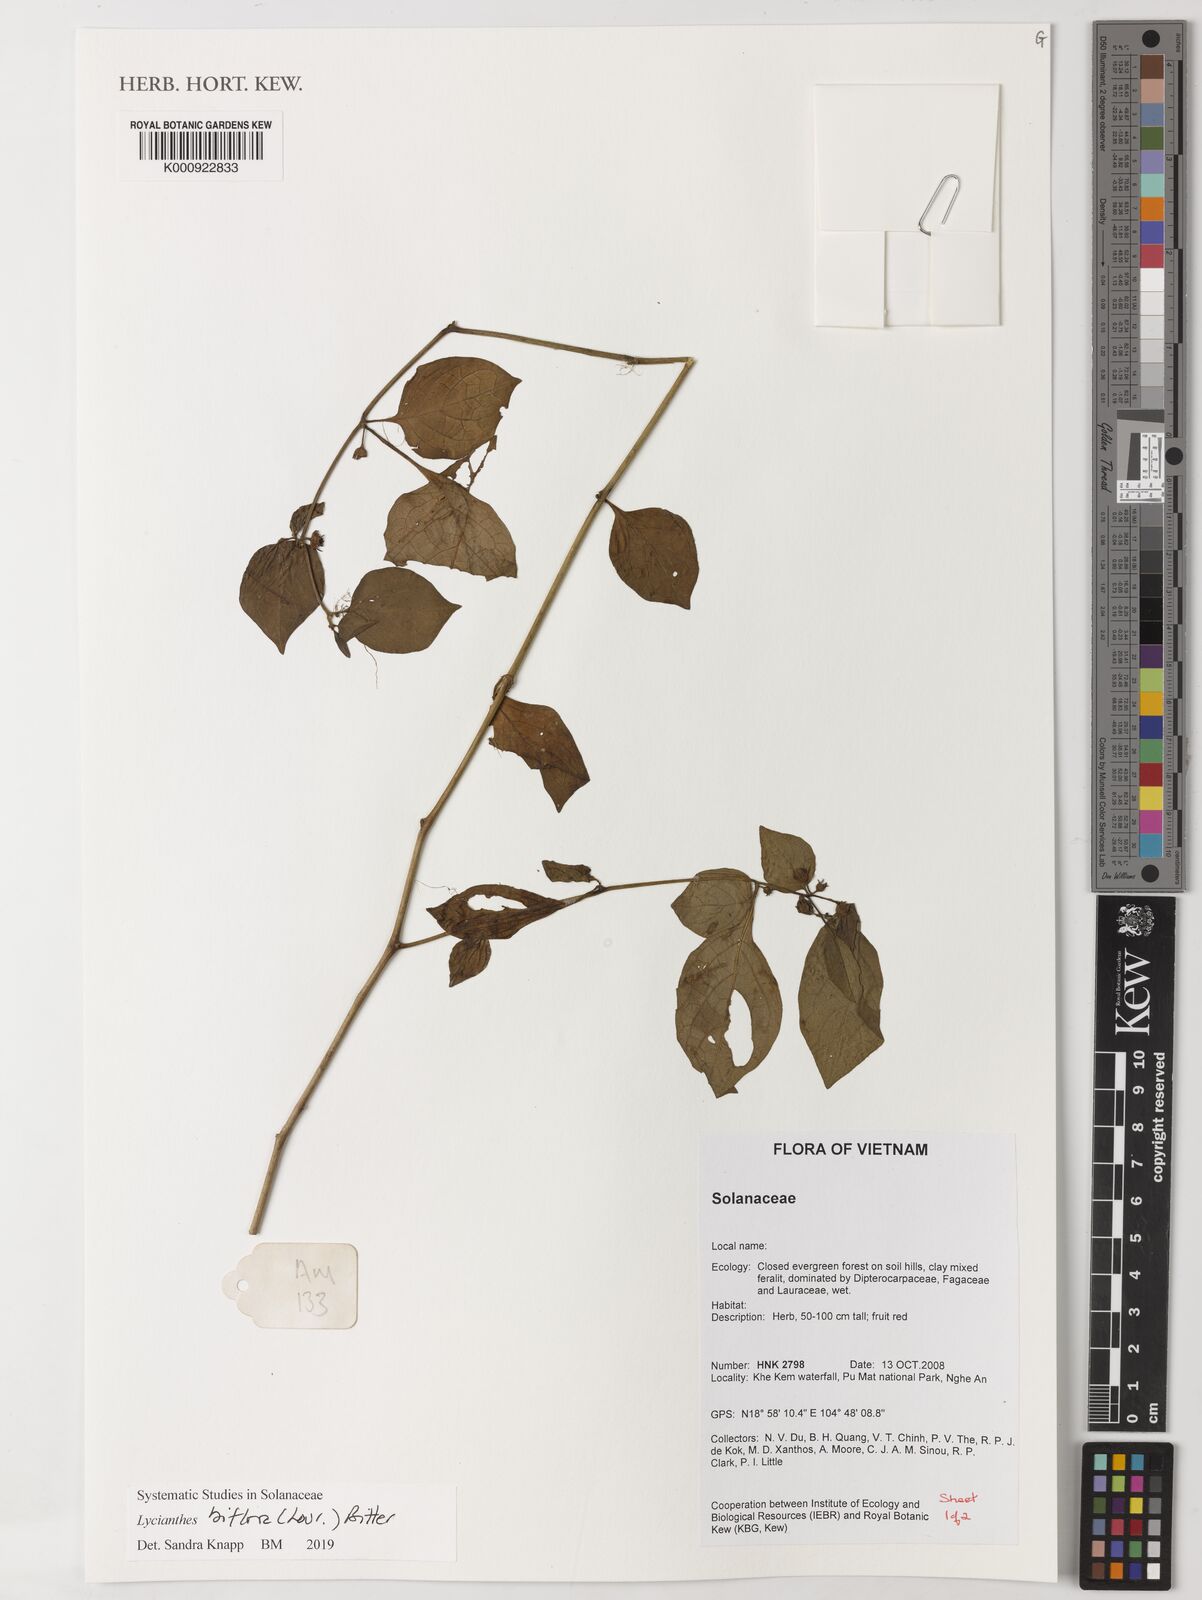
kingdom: Plantae
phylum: Tracheophyta
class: Magnoliopsida
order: Solanales
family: Solanaceae
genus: Lycianthes
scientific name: Lycianthes biflora
